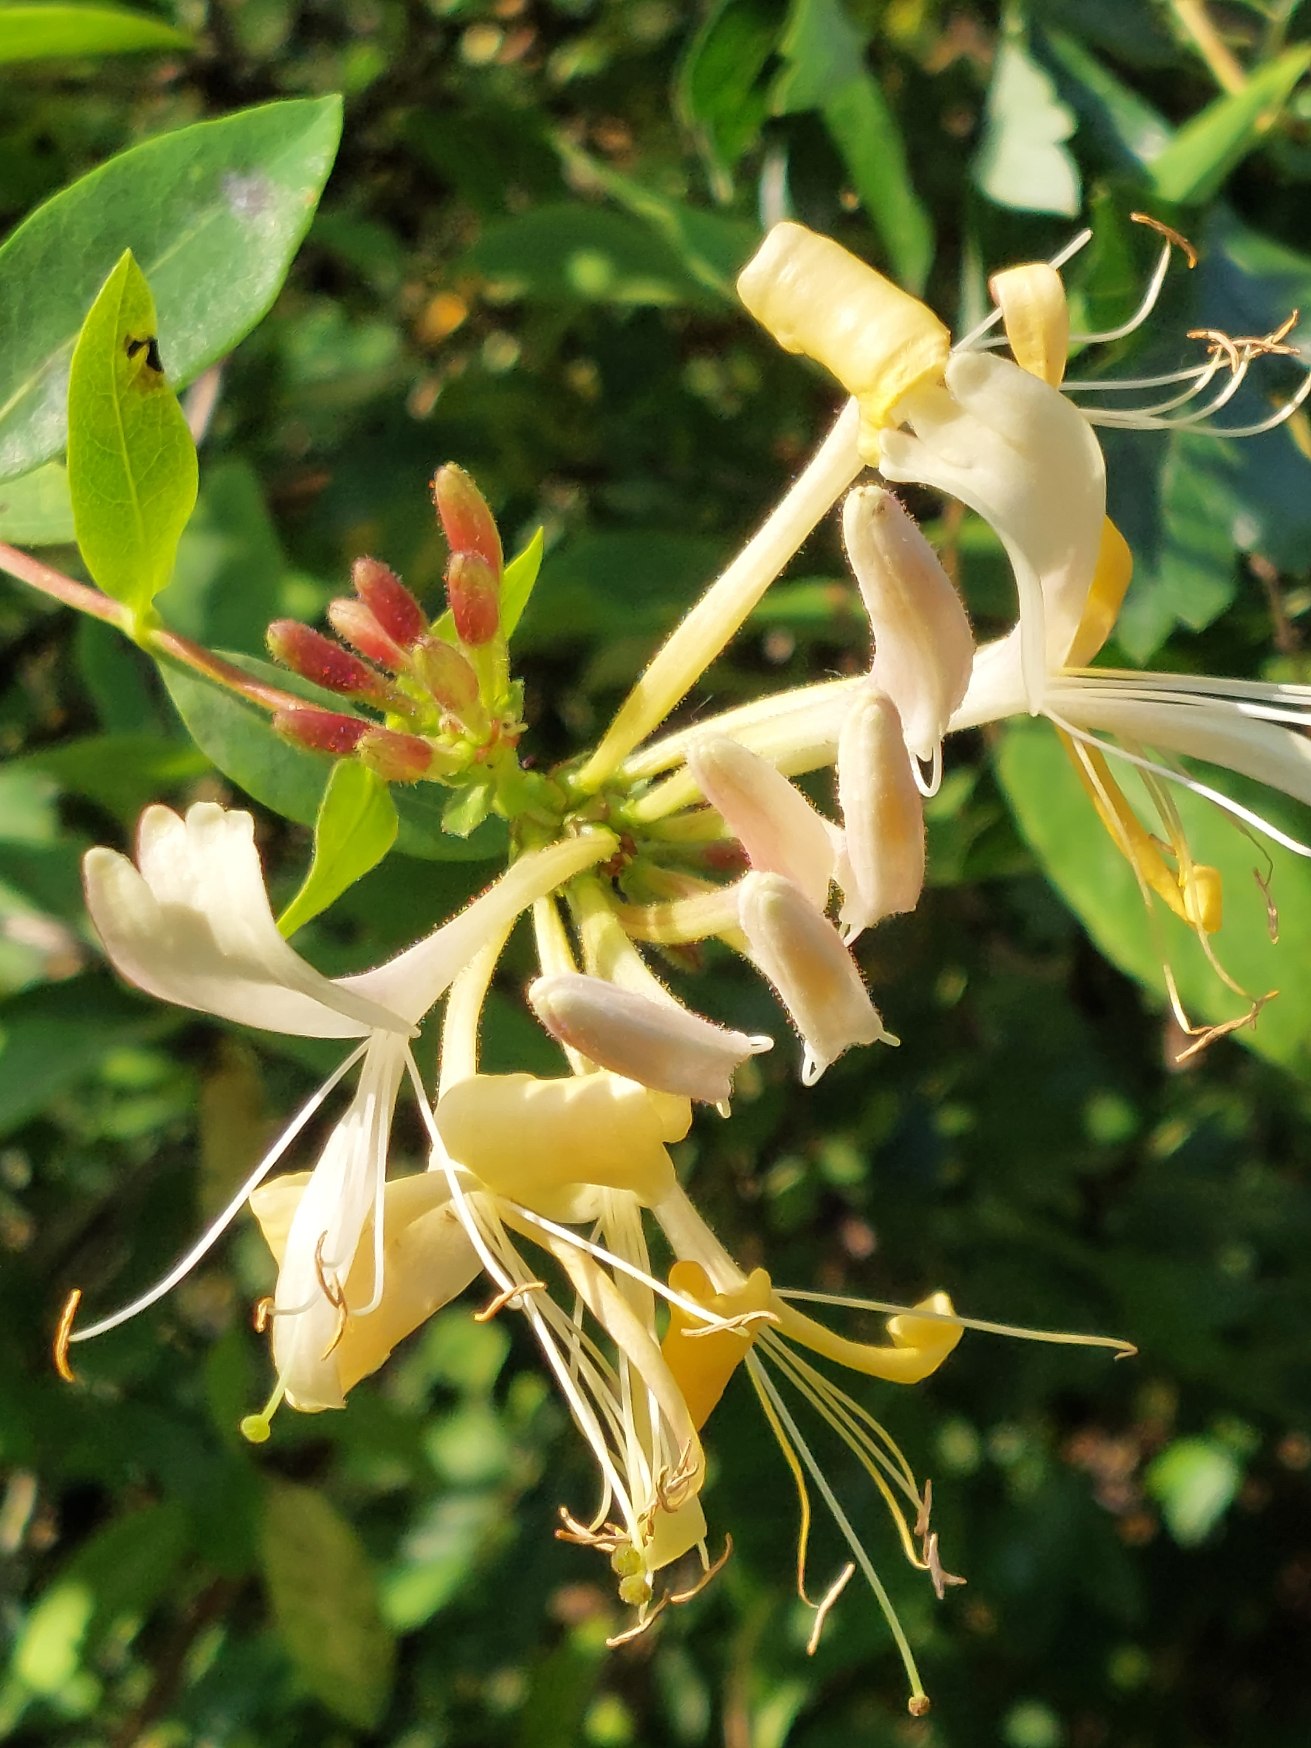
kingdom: Plantae
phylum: Tracheophyta
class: Magnoliopsida
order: Dipsacales
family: Caprifoliaceae
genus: Lonicera
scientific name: Lonicera periclymenum
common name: Almindelig gedeblad
